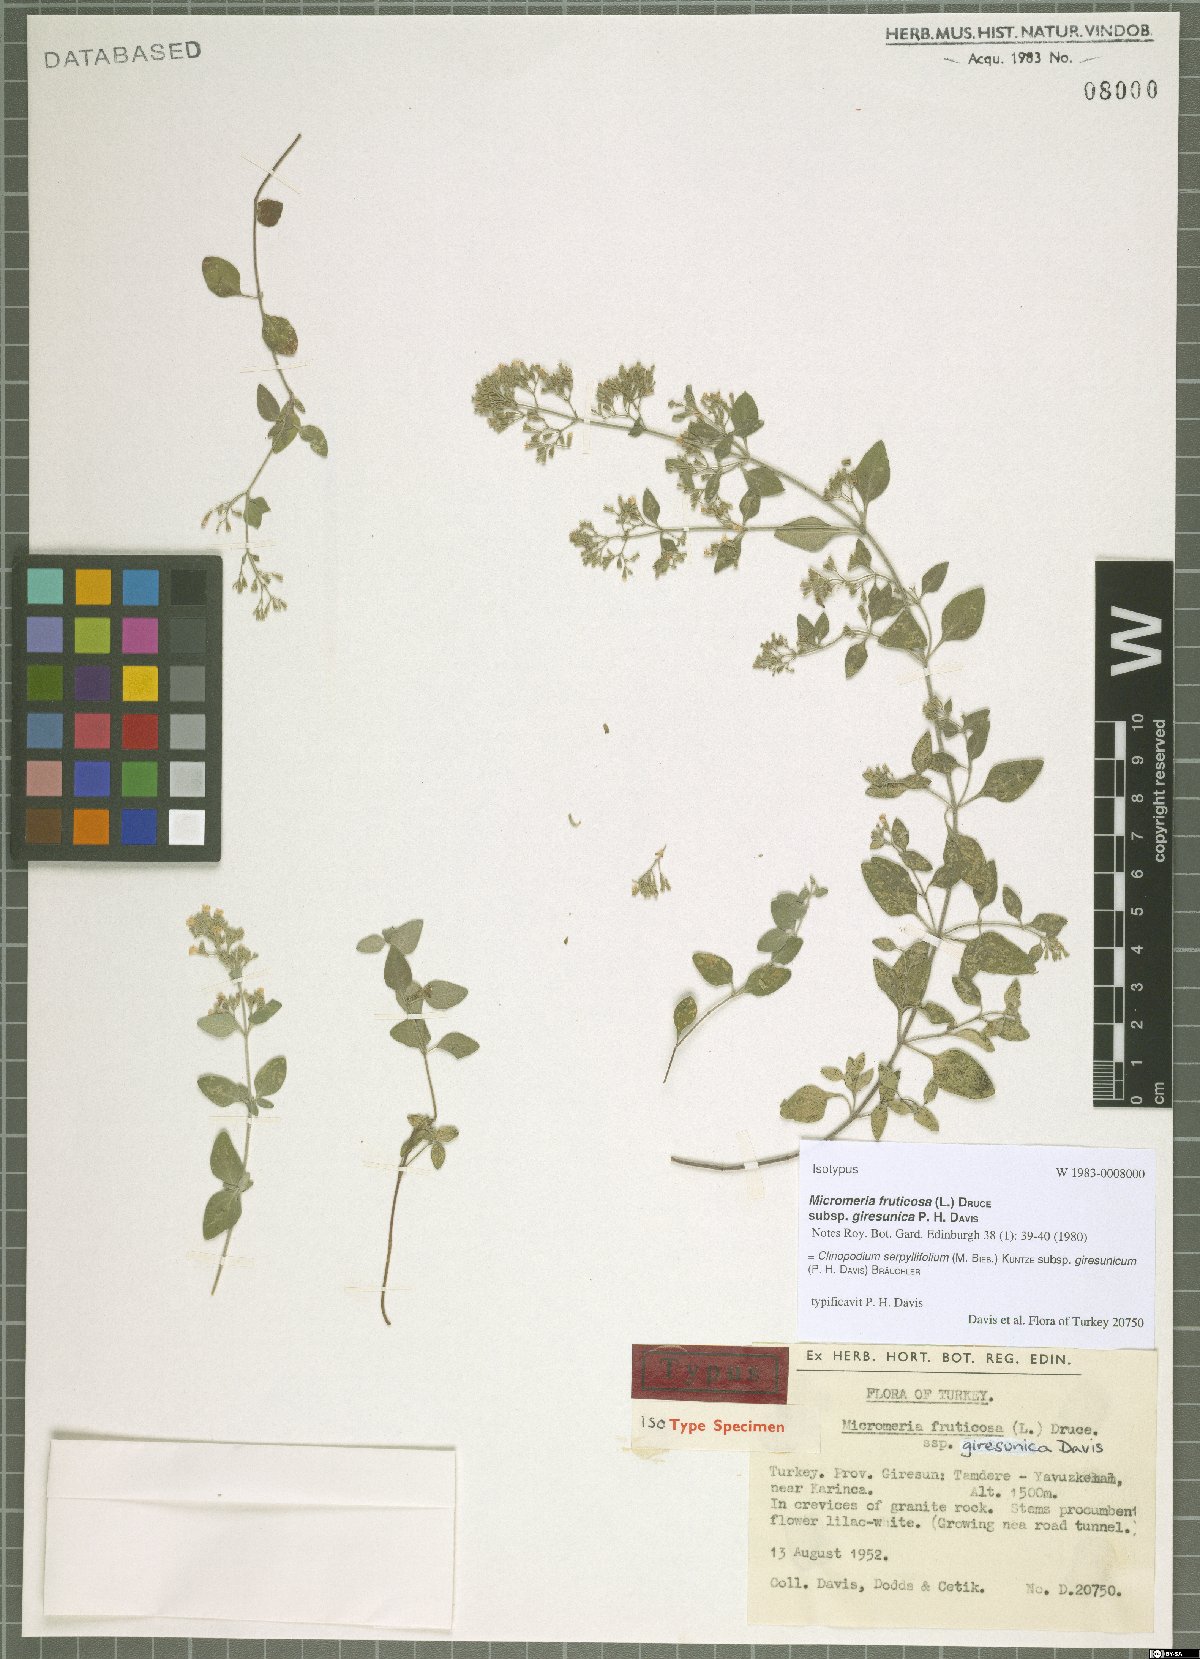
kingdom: Plantae
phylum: Tracheophyta
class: Magnoliopsida
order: Lamiales
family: Lamiaceae
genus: Clinopodium
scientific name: Clinopodium serpyllifolium
